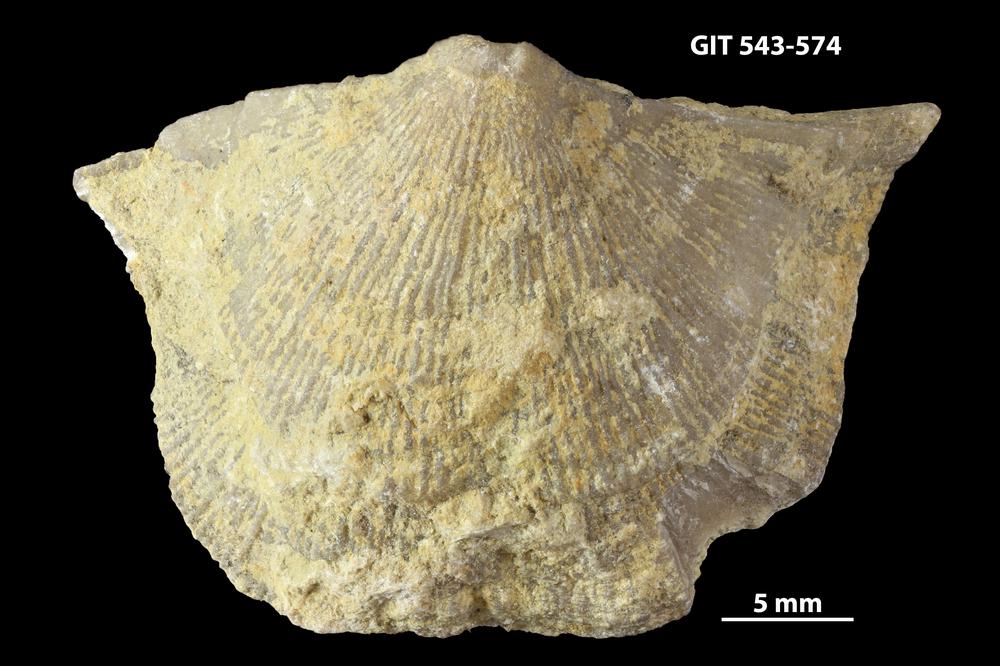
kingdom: Animalia
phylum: Brachiopoda
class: Rhynchonellata
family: Clitambonitidae
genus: Vellamo
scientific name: Vellamo emarginata
